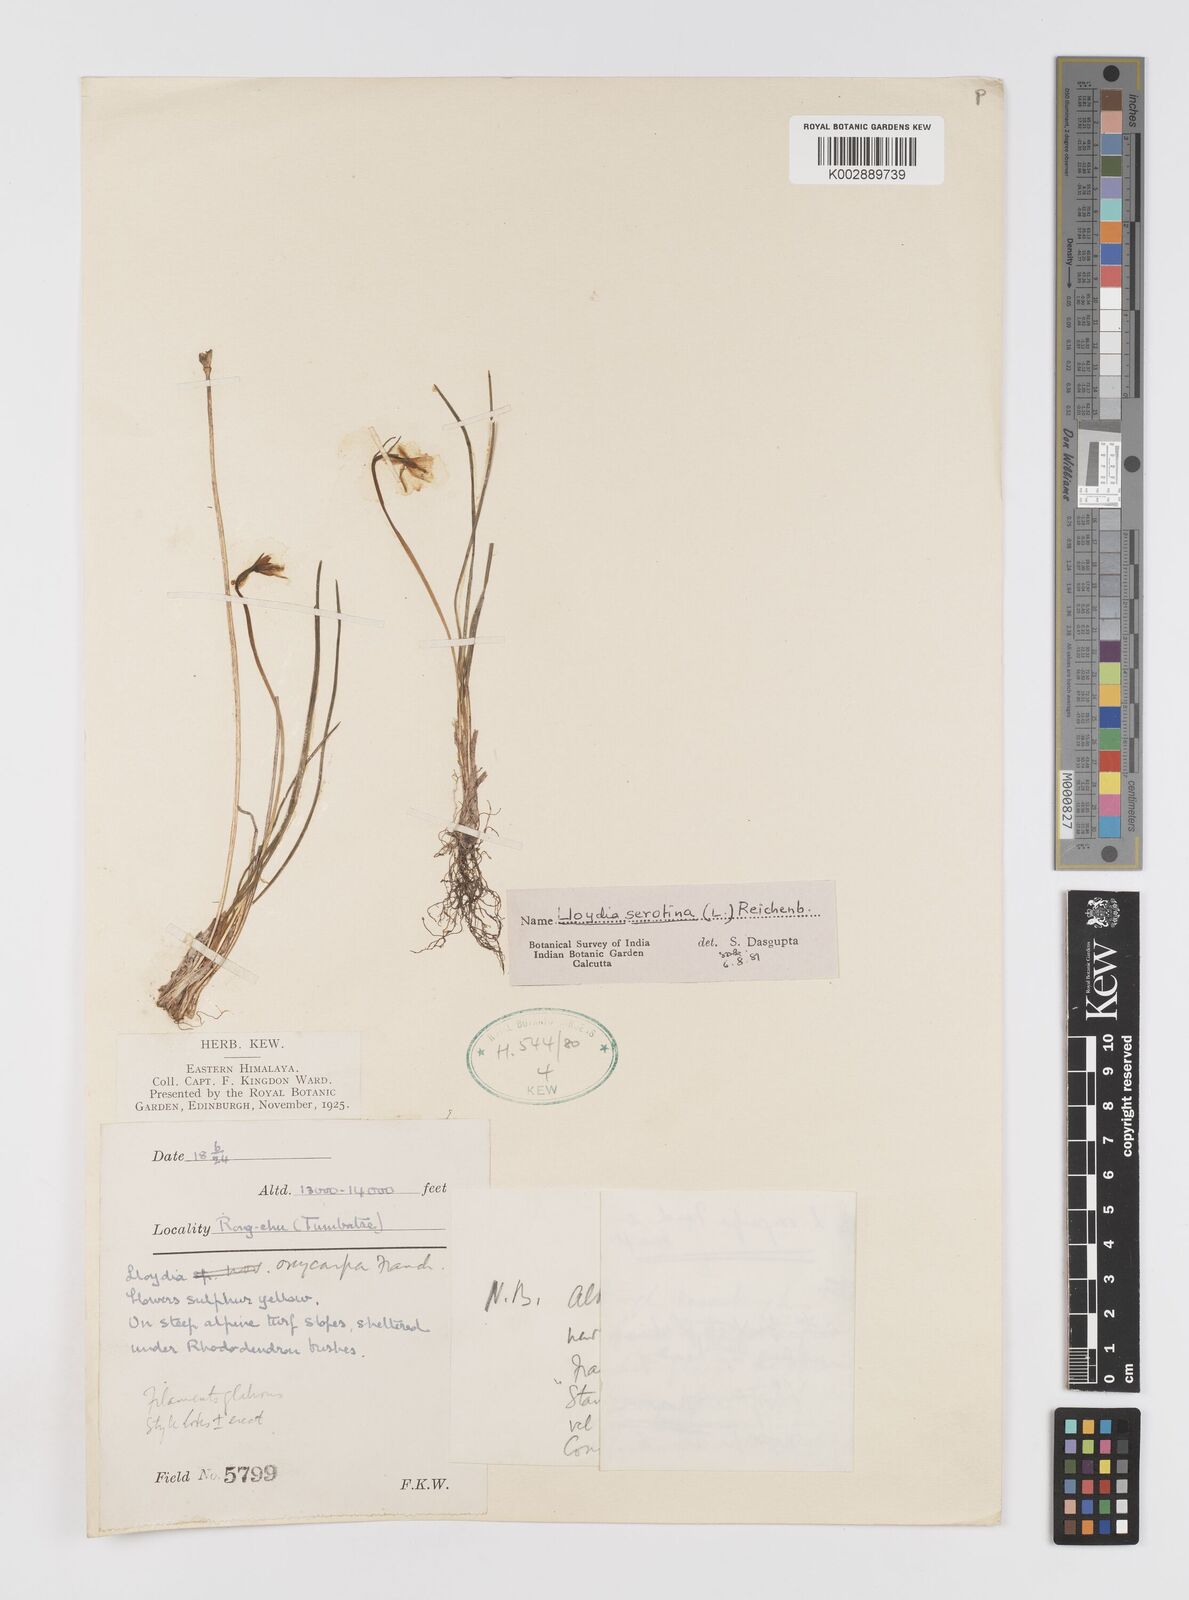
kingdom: Plantae
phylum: Tracheophyta
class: Liliopsida
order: Liliales
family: Liliaceae
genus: Gagea
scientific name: Gagea serotina
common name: Snowdon lily
